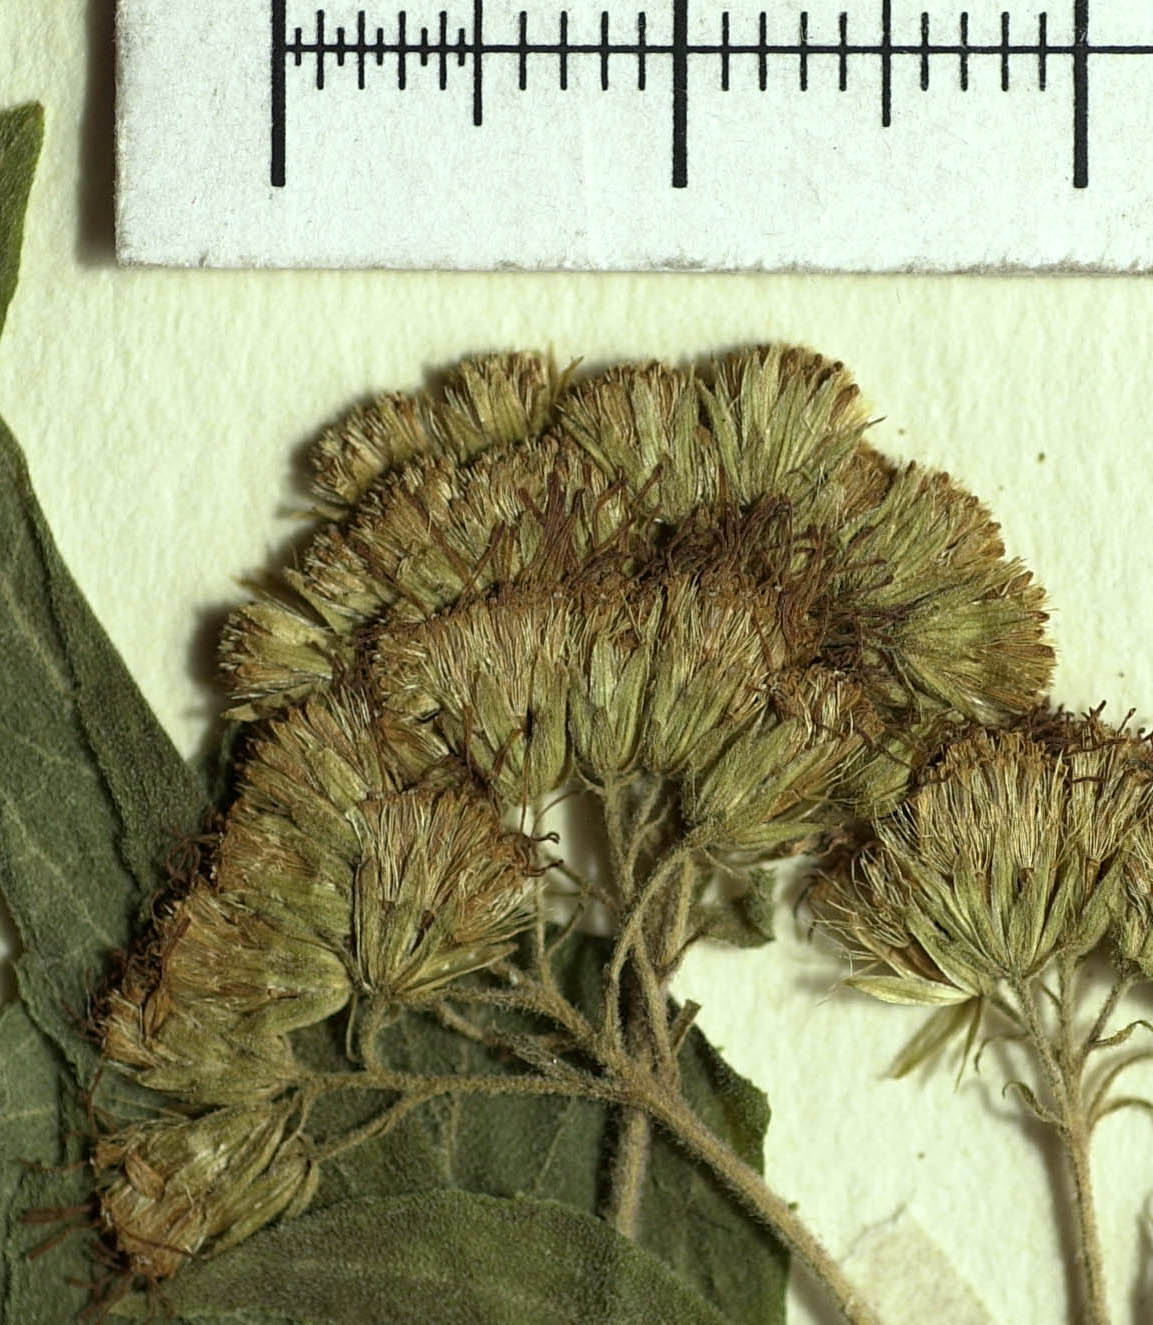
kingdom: Plantae
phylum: Tracheophyta
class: Magnoliopsida
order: Asterales
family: Asteraceae
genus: Koanophyllon
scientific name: Koanophyllon heptaneurum
